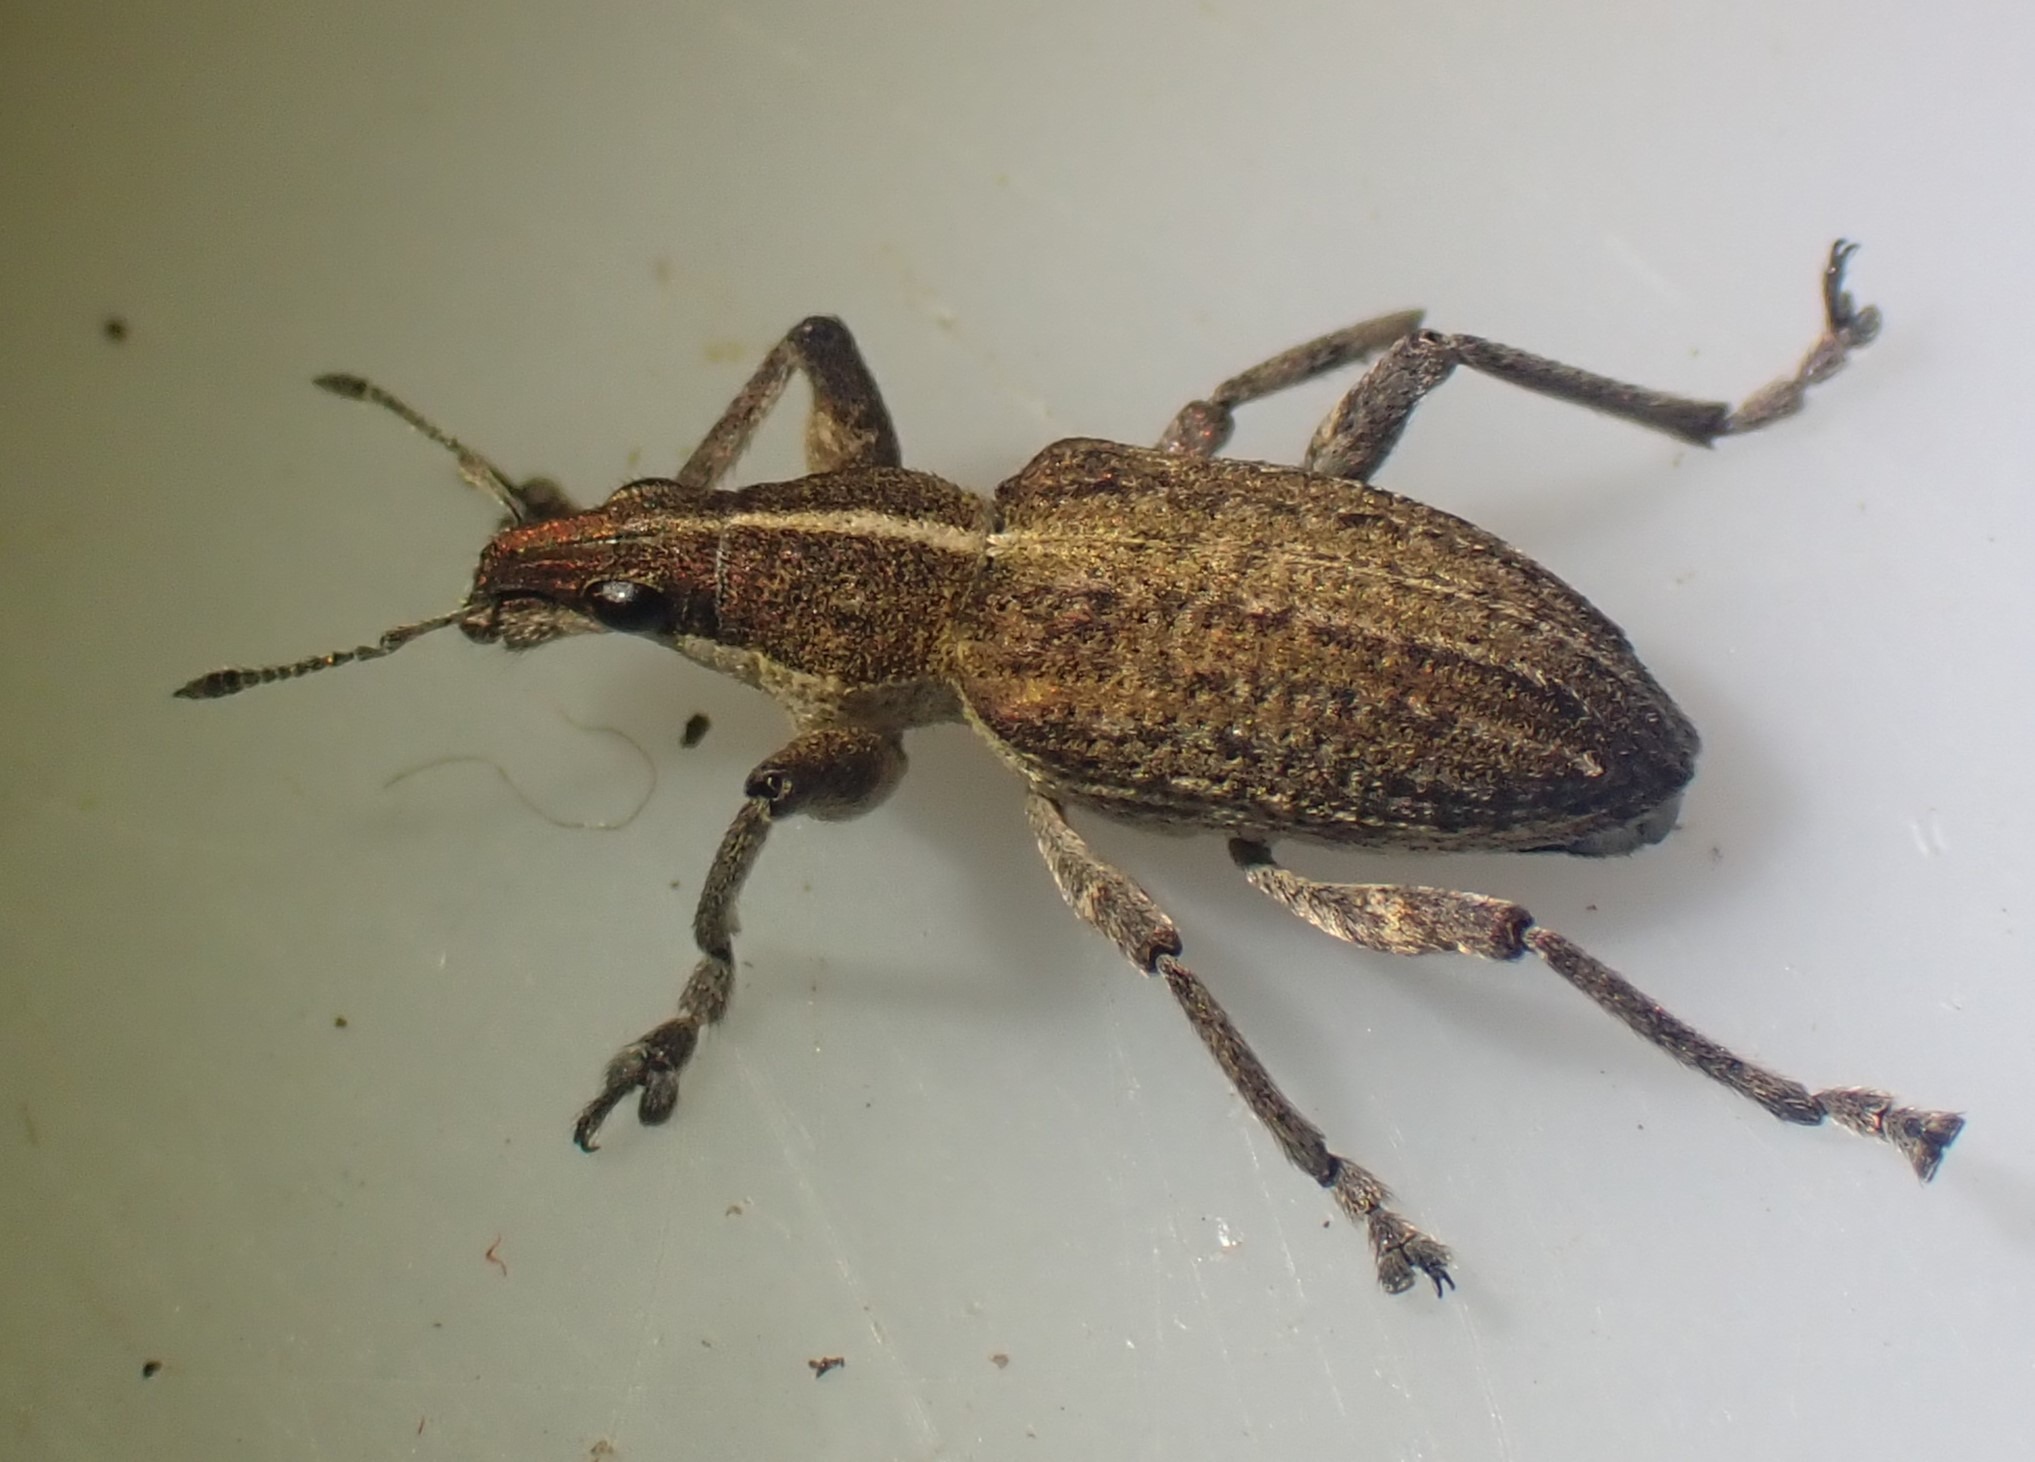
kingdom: Animalia
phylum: Arthropoda
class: Insecta
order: Coleoptera
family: Curculionidae
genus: Charagmus
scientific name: Charagmus gressorius
